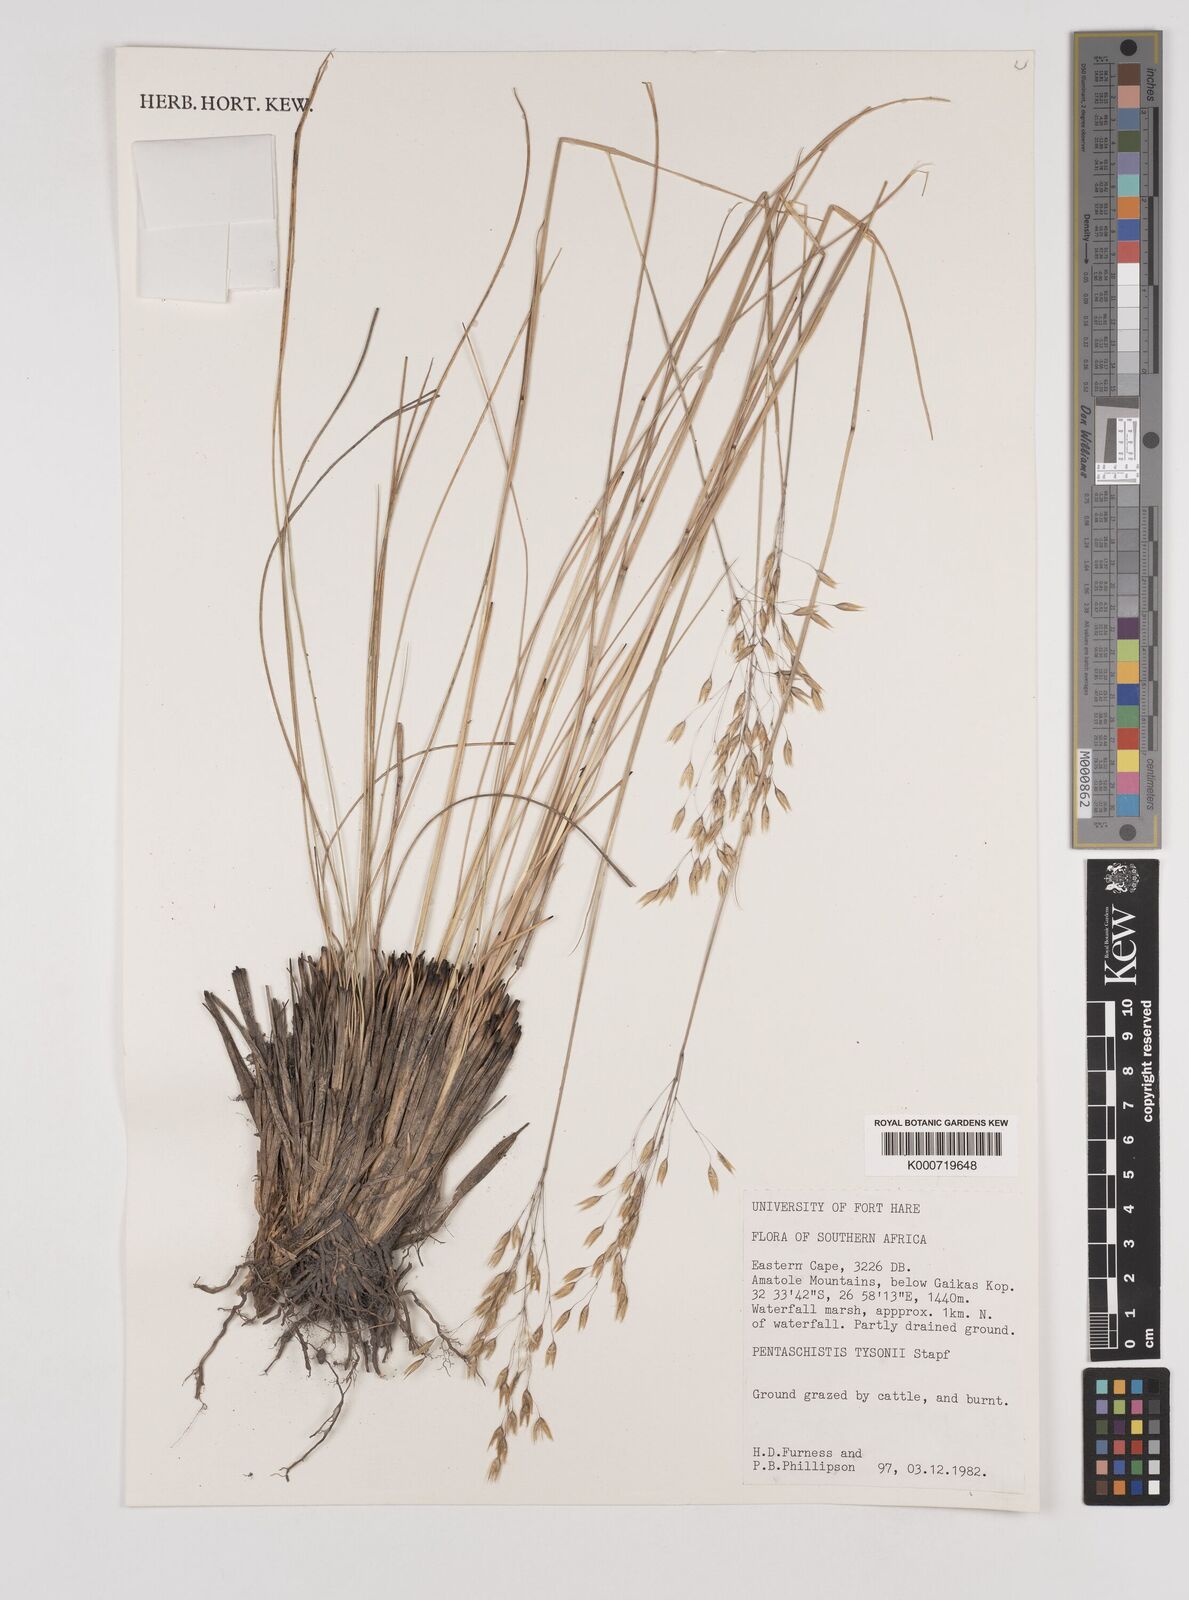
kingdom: Plantae
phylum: Tracheophyta
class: Liliopsida
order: Poales
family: Poaceae
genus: Pentameris
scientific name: Pentameris tysonii
